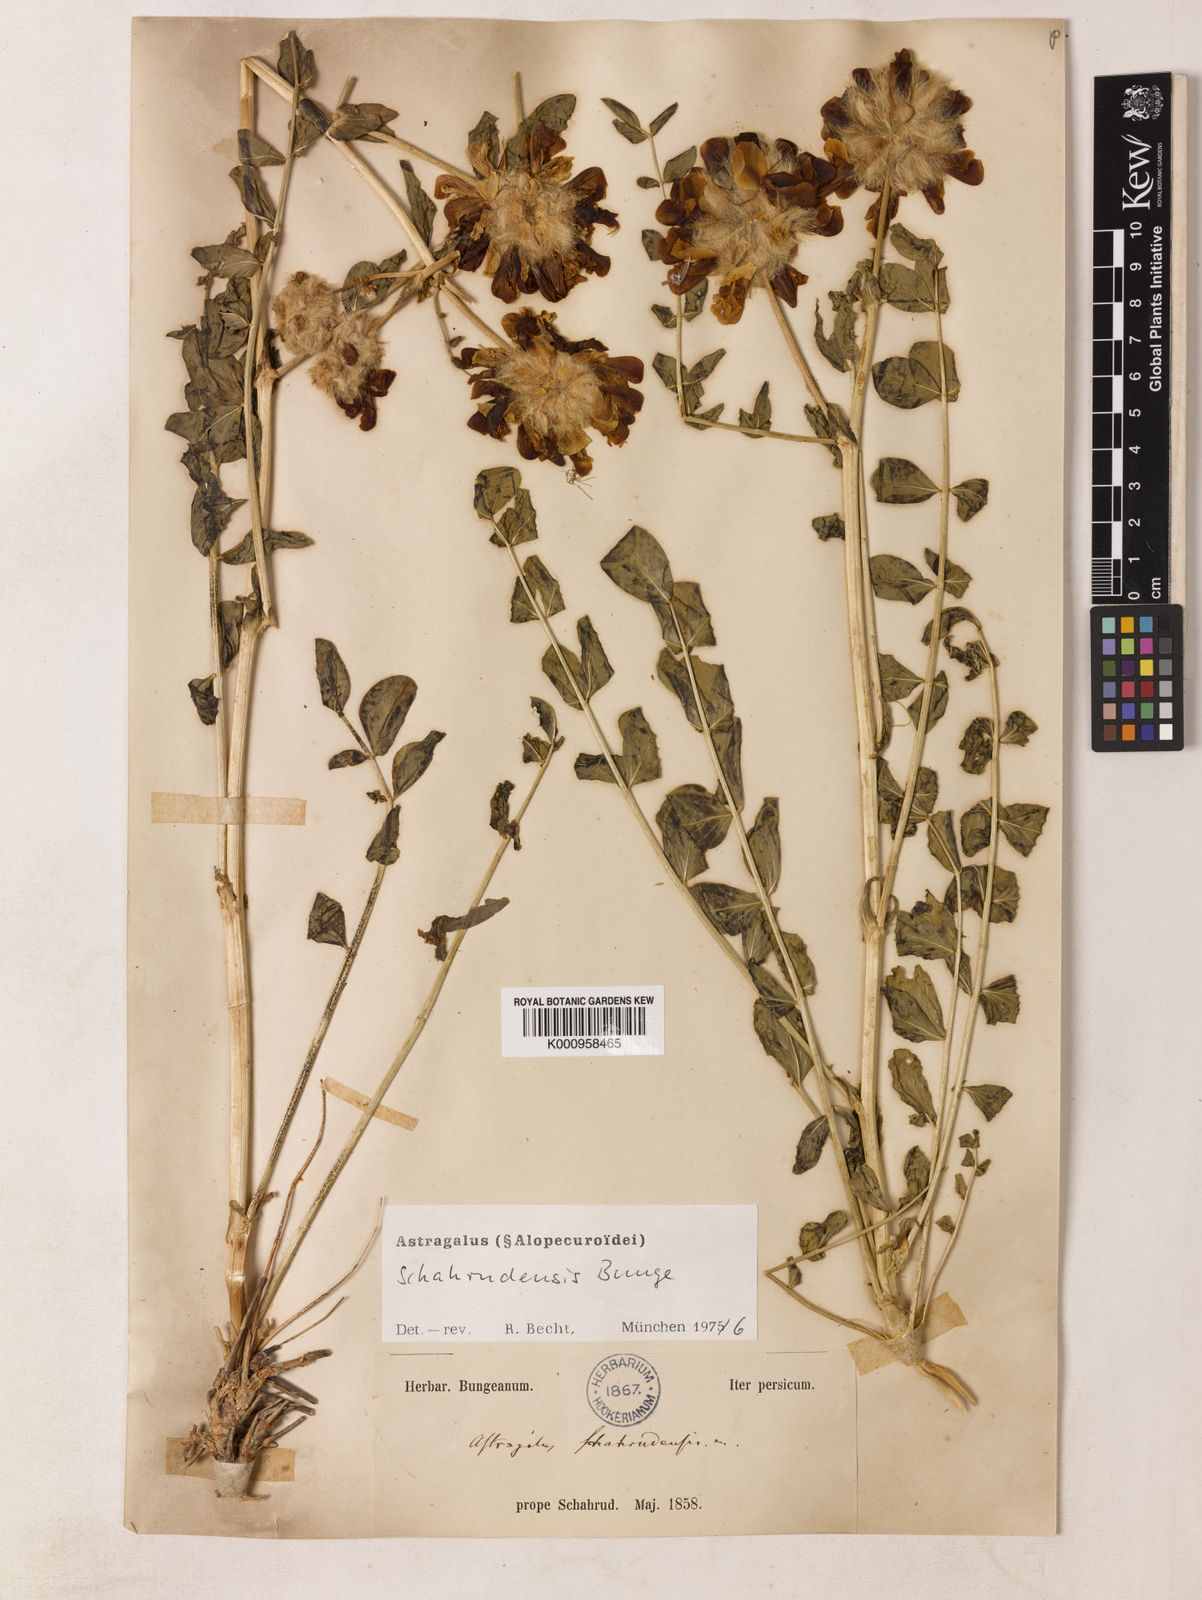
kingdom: Plantae
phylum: Tracheophyta
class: Magnoliopsida
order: Fabales
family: Fabaceae
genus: Astragalus
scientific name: Astragalus
